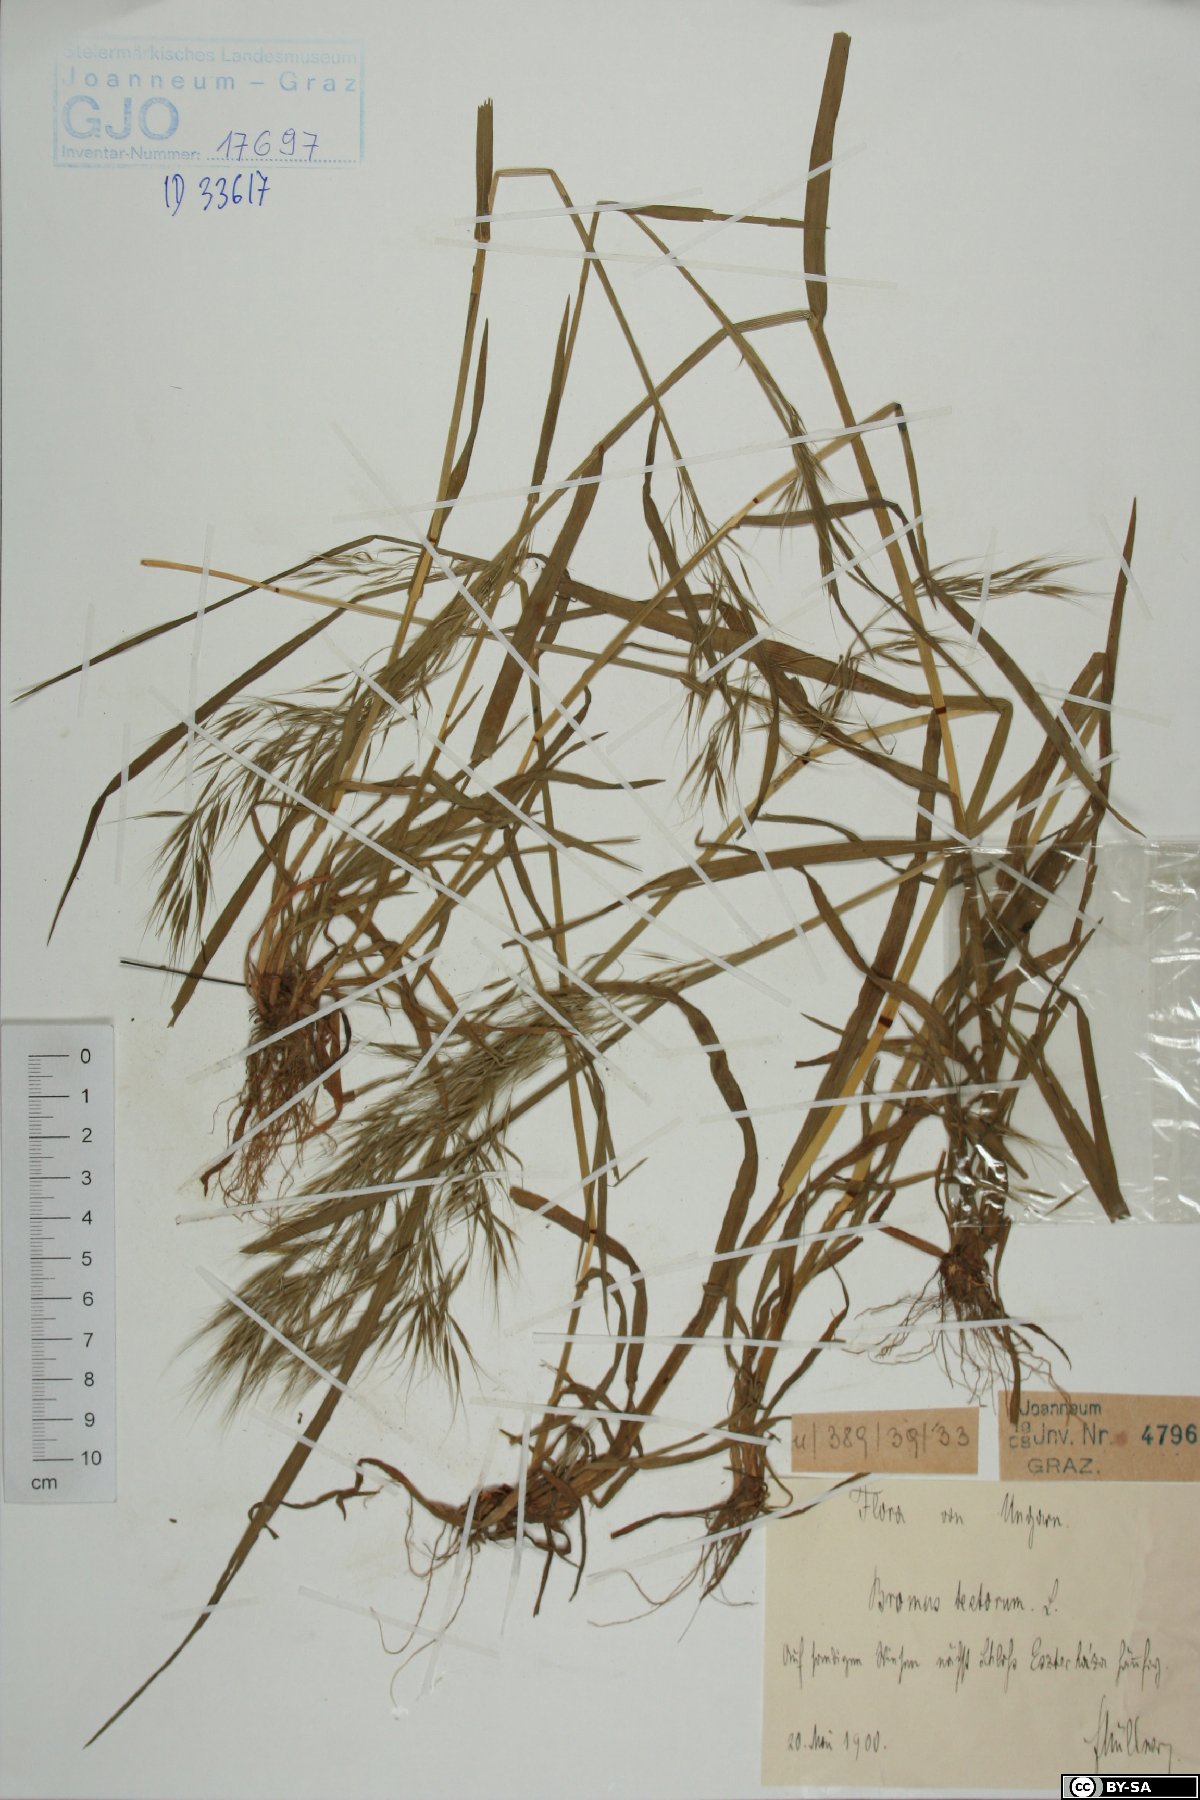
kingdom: Plantae
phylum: Tracheophyta
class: Liliopsida
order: Poales
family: Poaceae
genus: Bromus
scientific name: Bromus tectorum
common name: Cheatgrass
